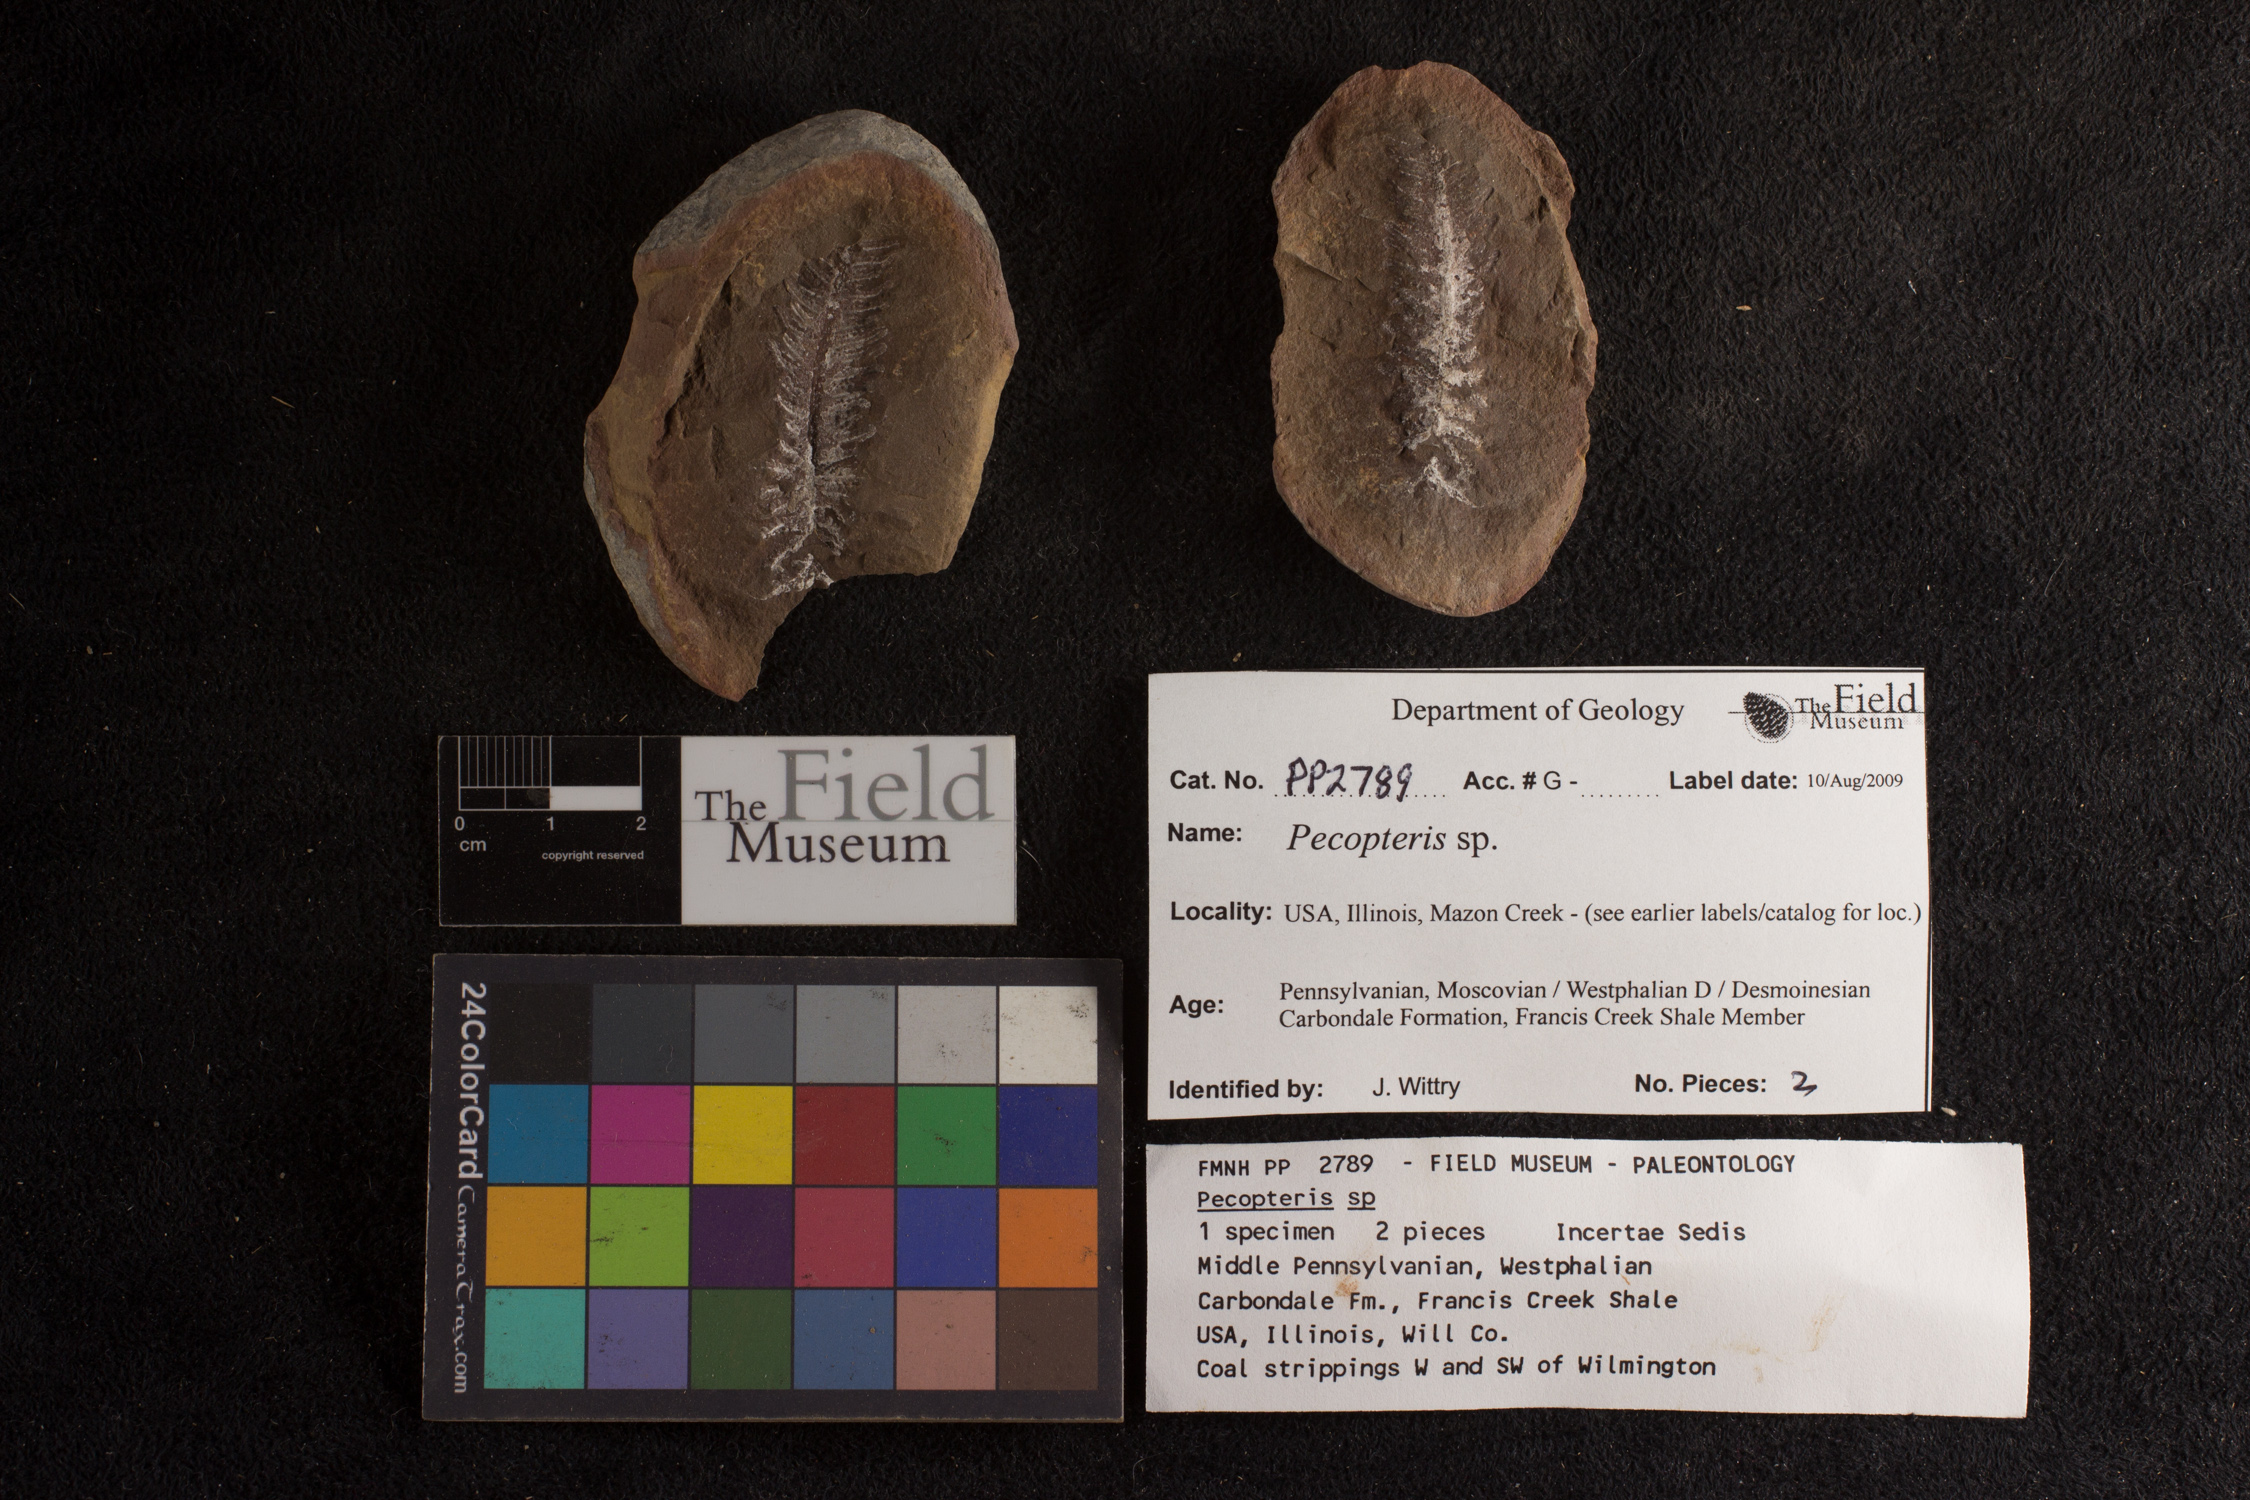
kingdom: Plantae
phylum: Tracheophyta
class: Polypodiopsida
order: Marattiales
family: Asterothecaceae
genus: Pecopteris
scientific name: Pecopteris
